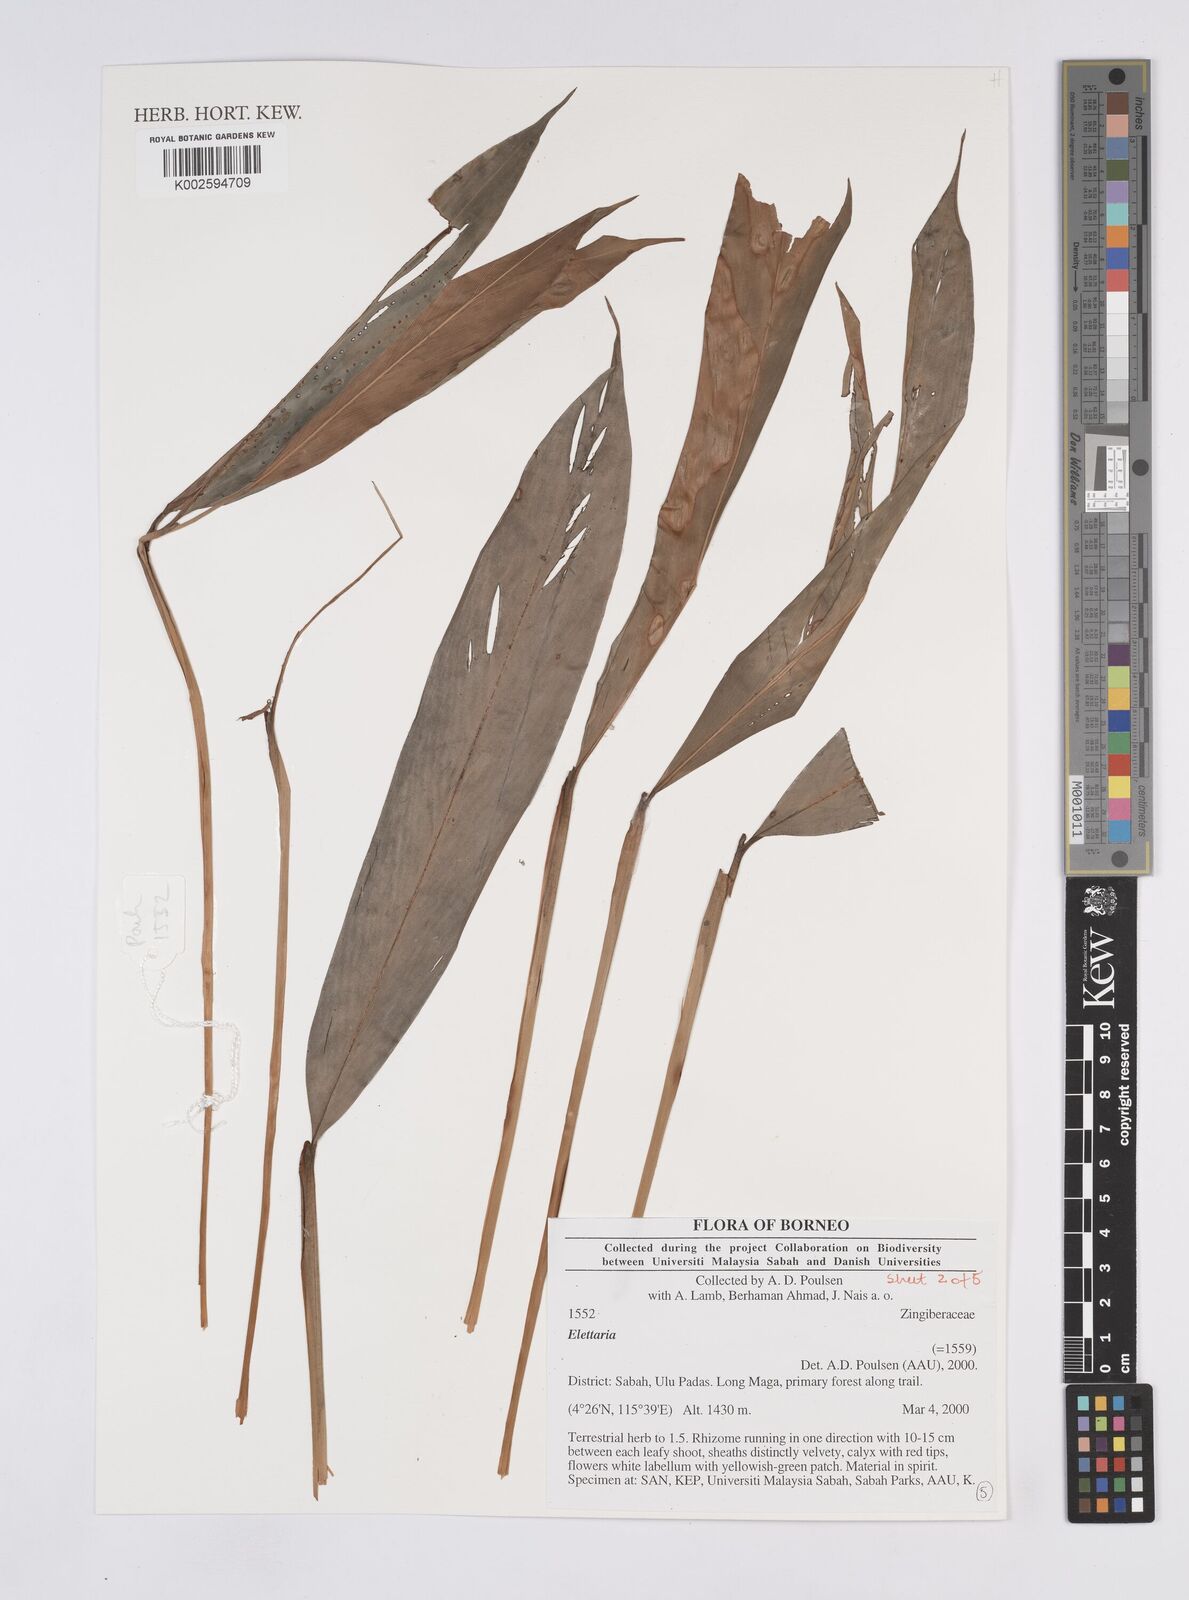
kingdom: Plantae
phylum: Tracheophyta
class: Liliopsida
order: Zingiberales
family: Zingiberaceae
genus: Elettaria
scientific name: Elettaria
